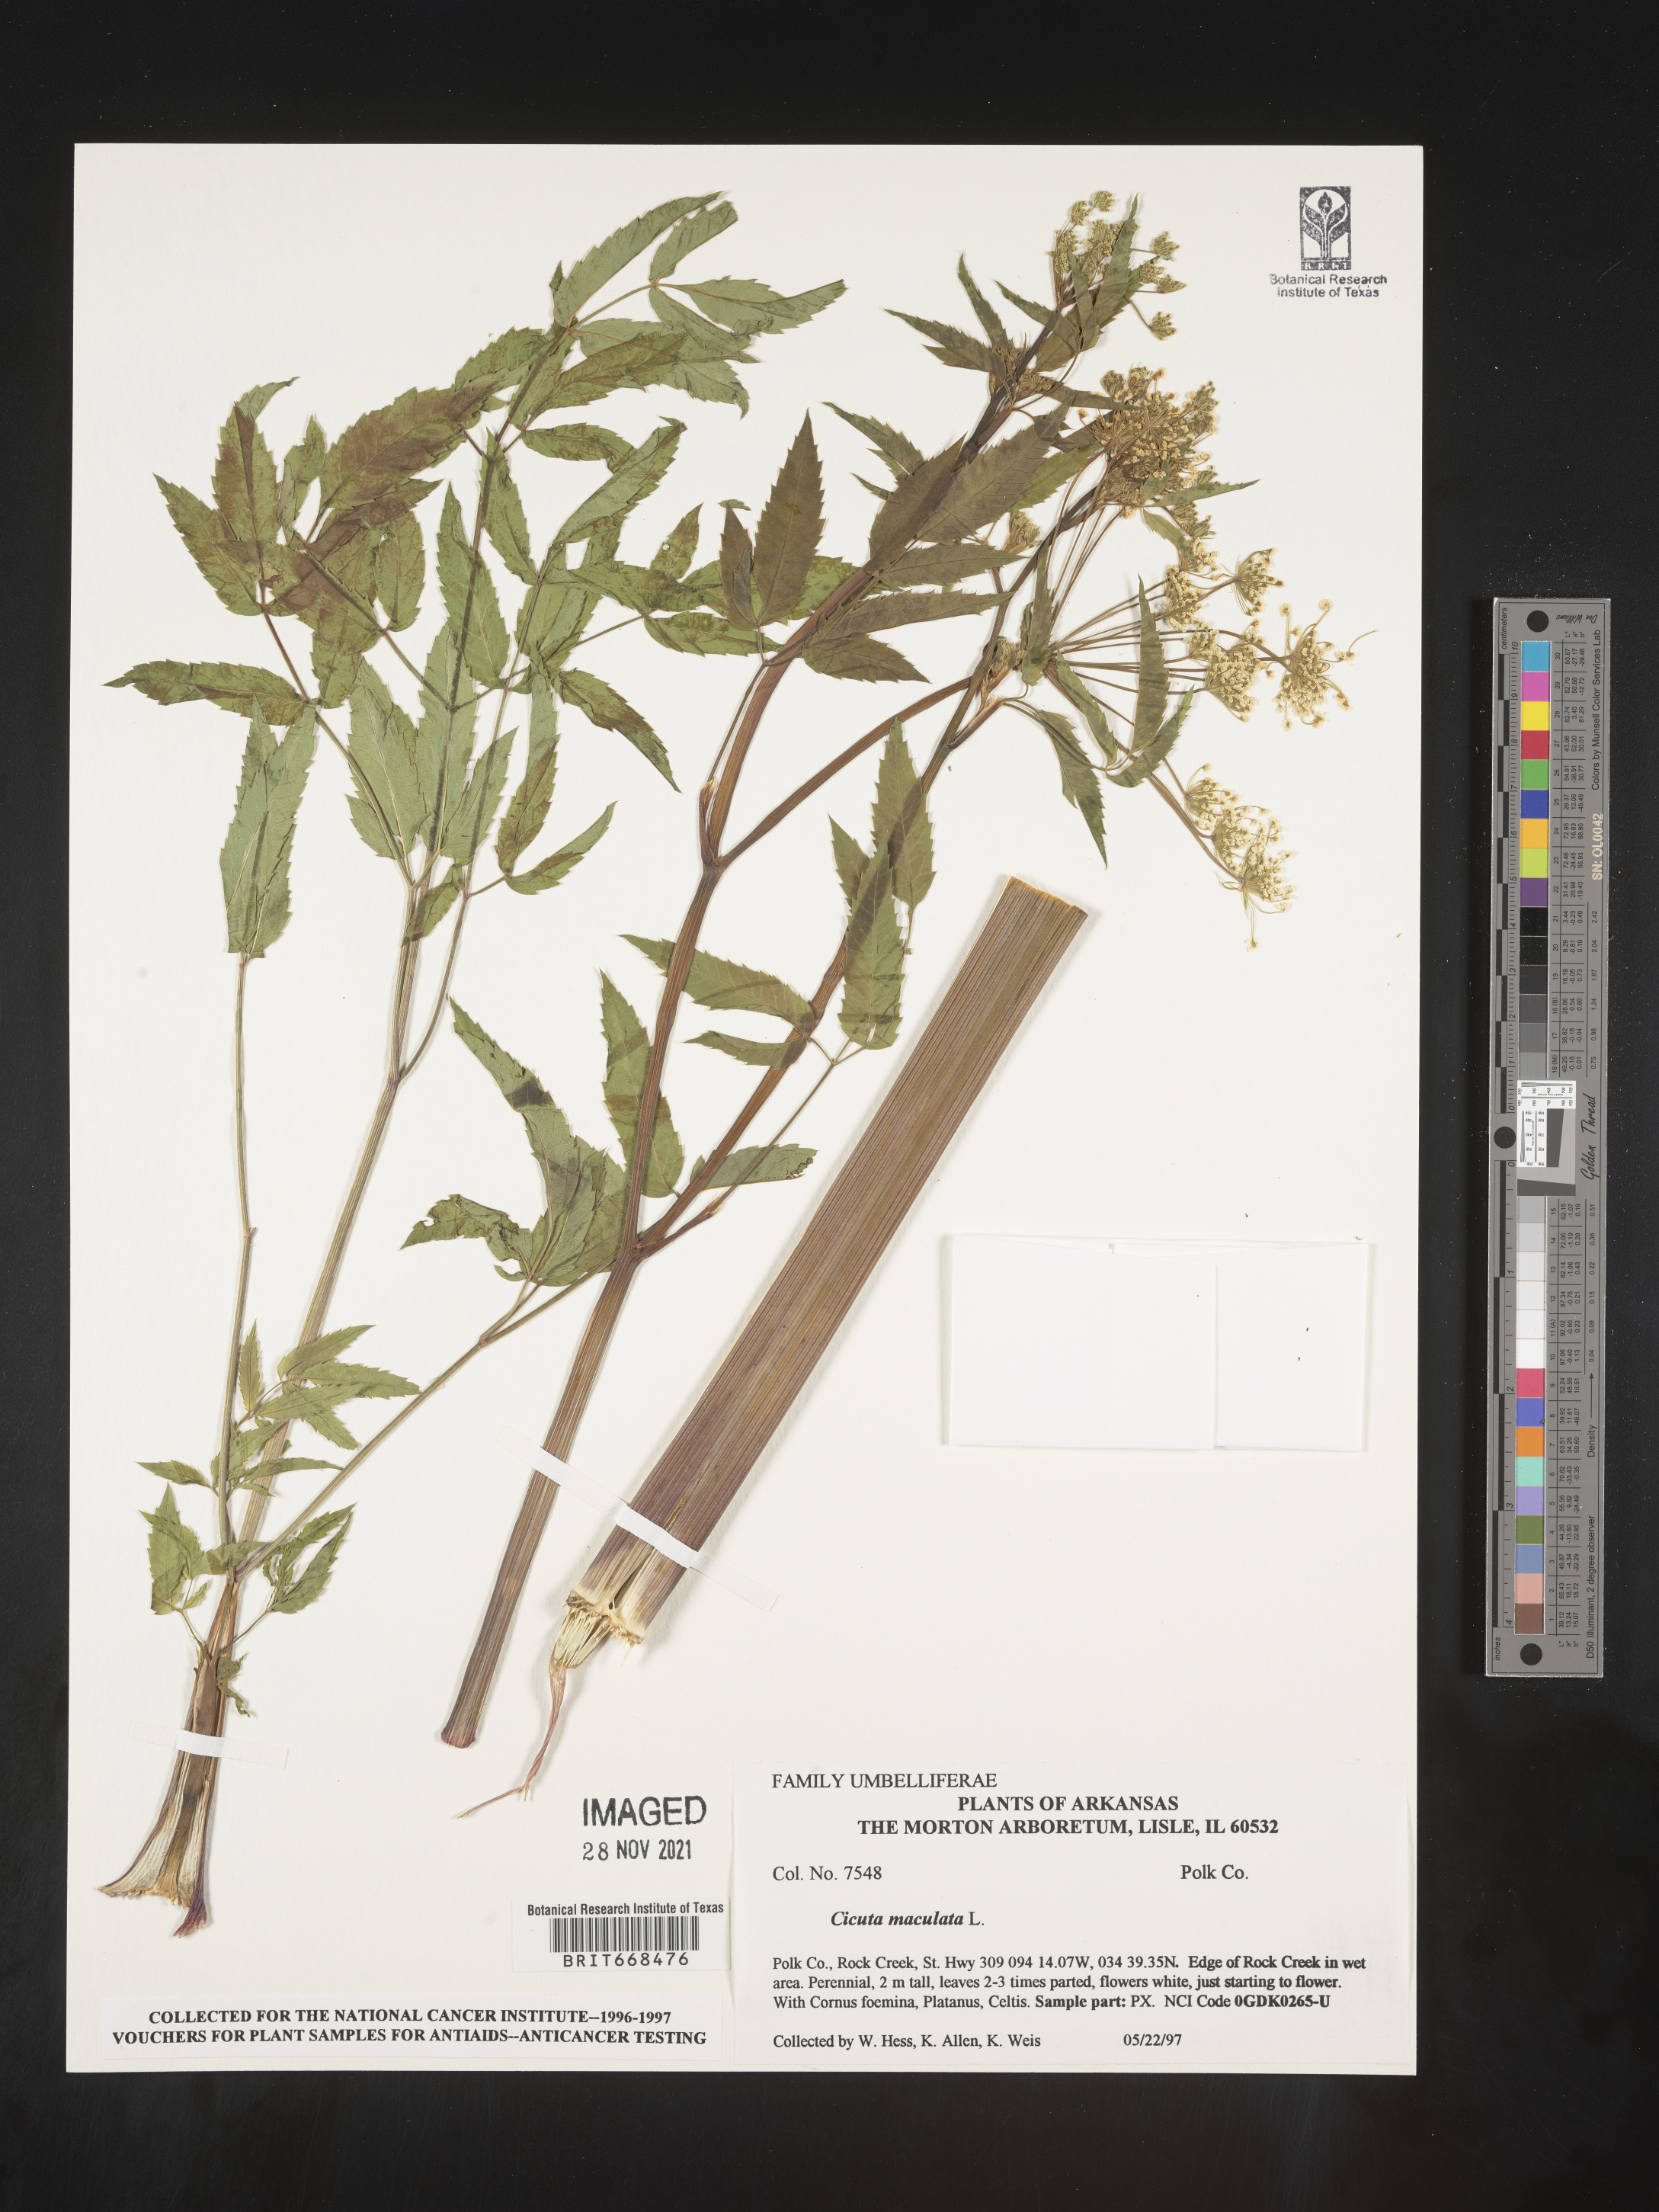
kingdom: Plantae
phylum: Tracheophyta
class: Magnoliopsida
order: Apiales
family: Apiaceae
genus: Cicuta
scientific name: Cicuta maculata
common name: Spotted cowbane
